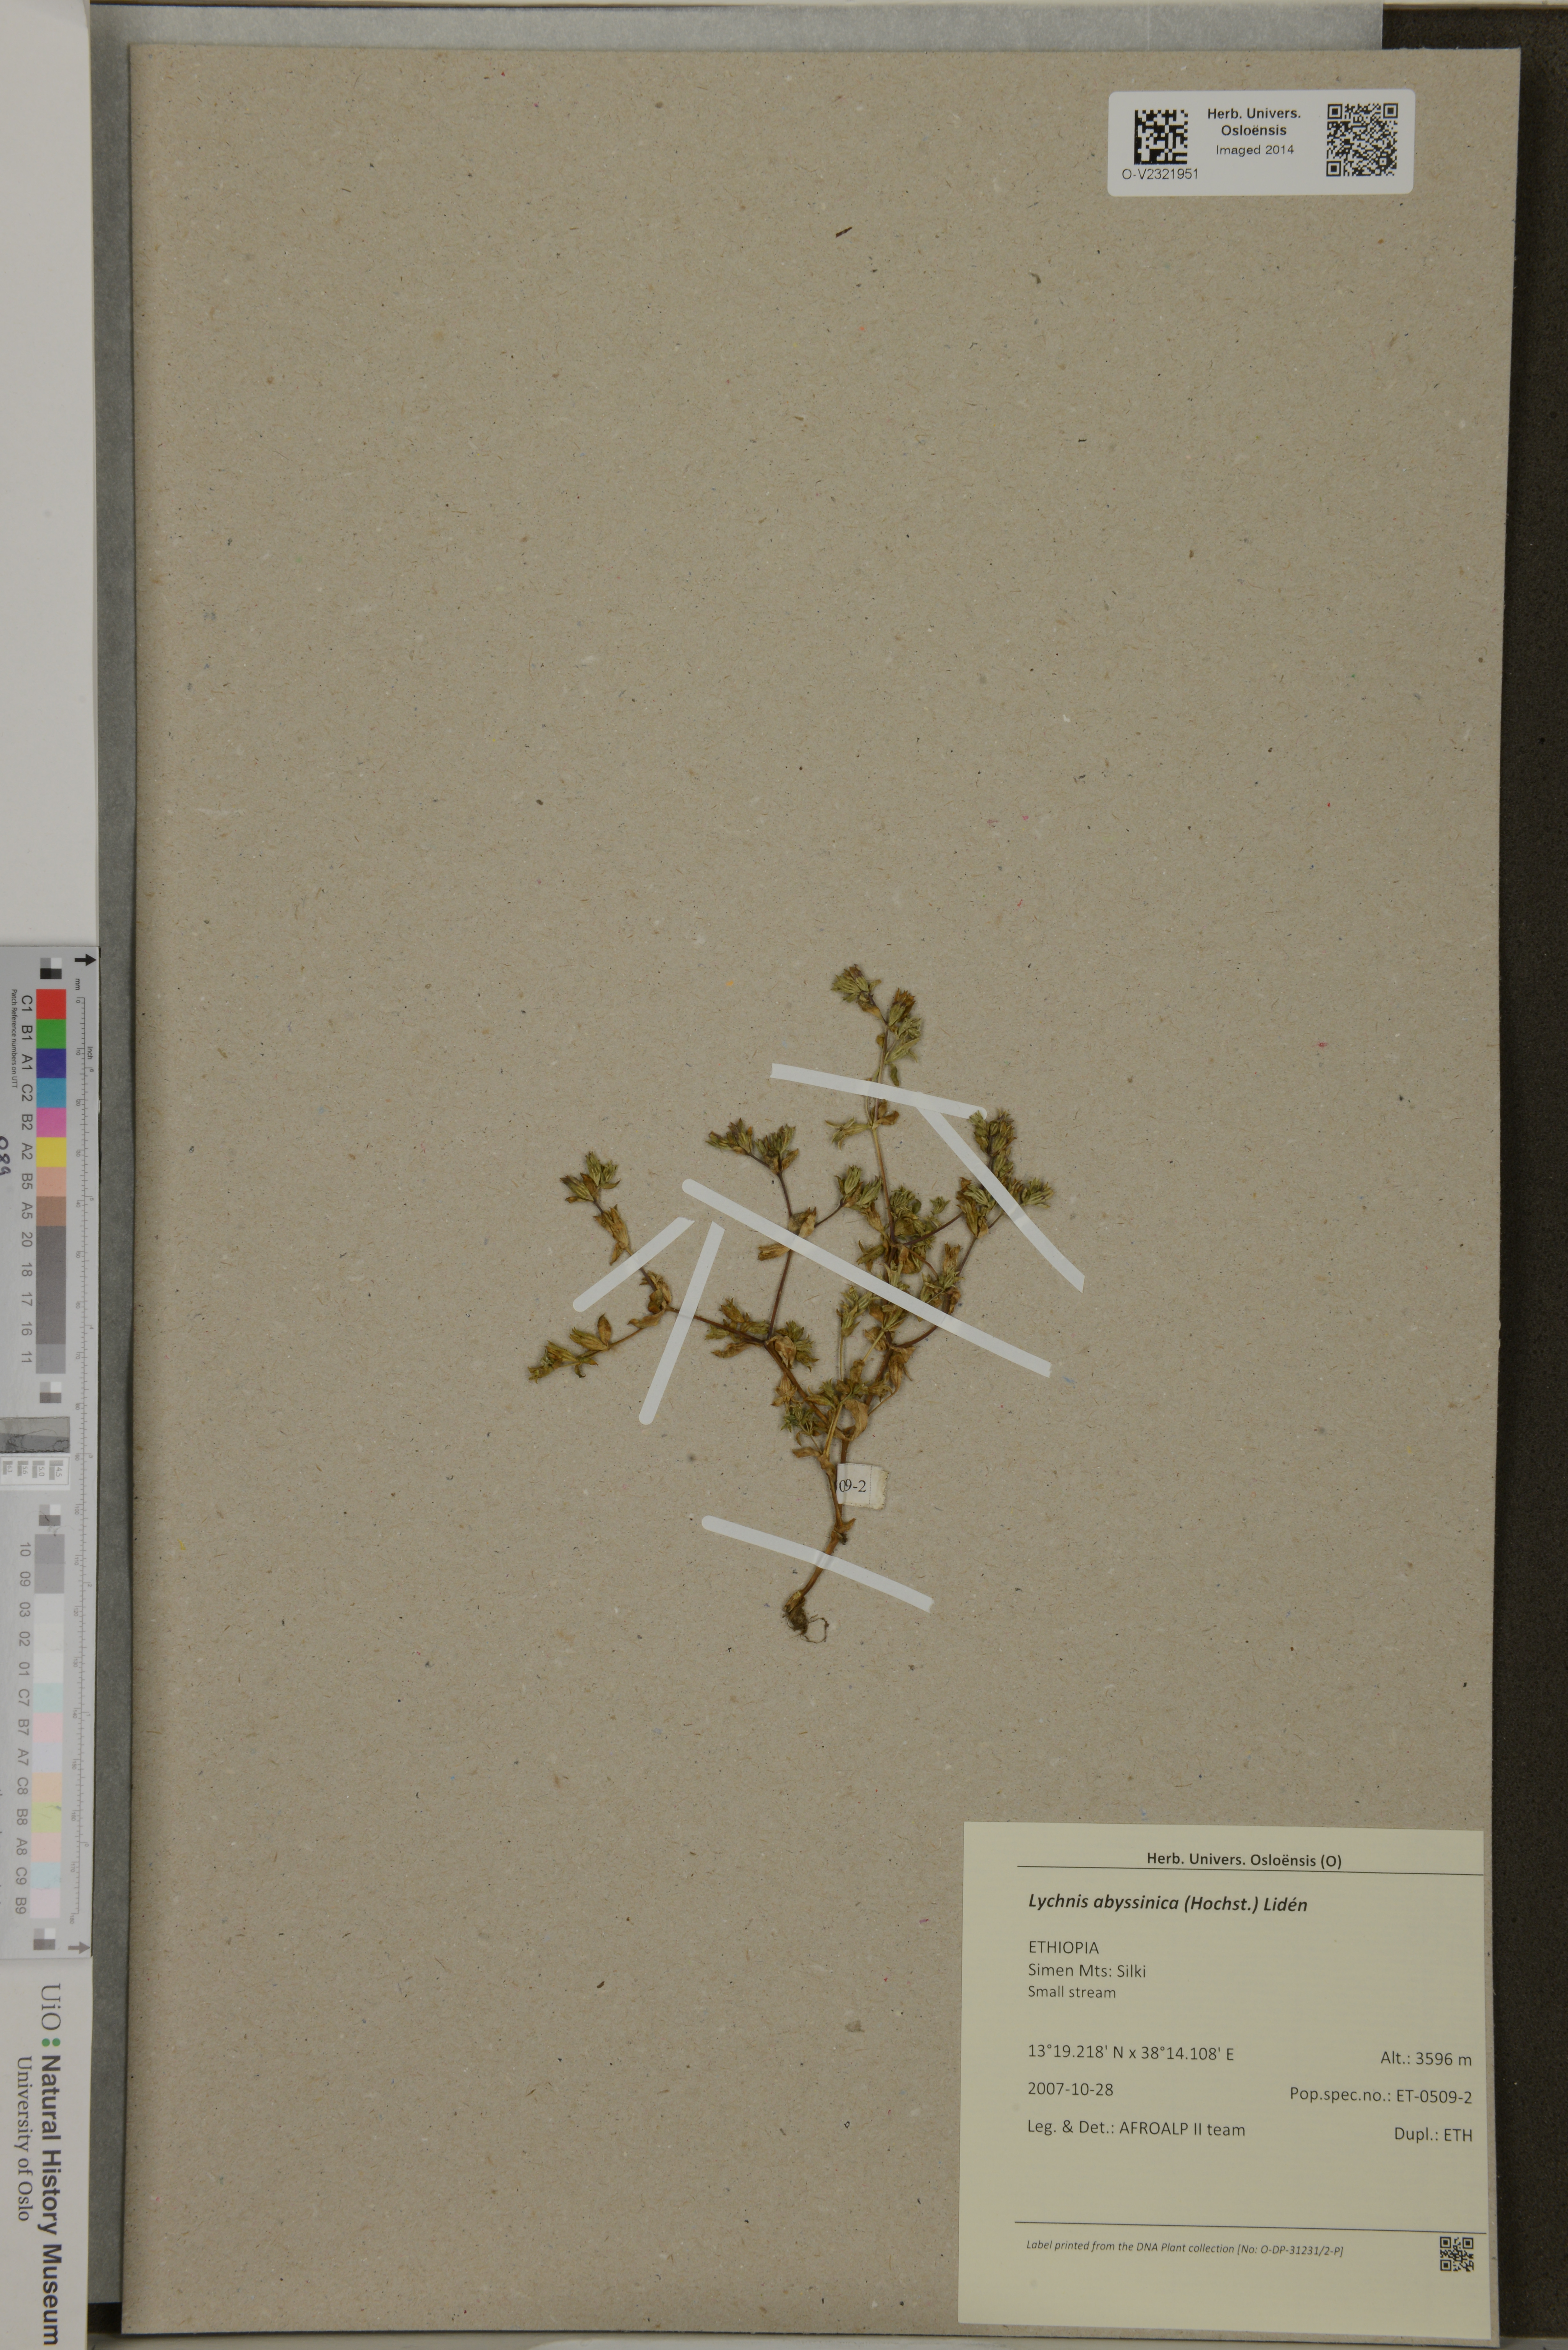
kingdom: Plantae
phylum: Tracheophyta
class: Magnoliopsida
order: Caryophyllales
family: Caryophyllaceae
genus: Silene
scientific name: Silene abyssinica
